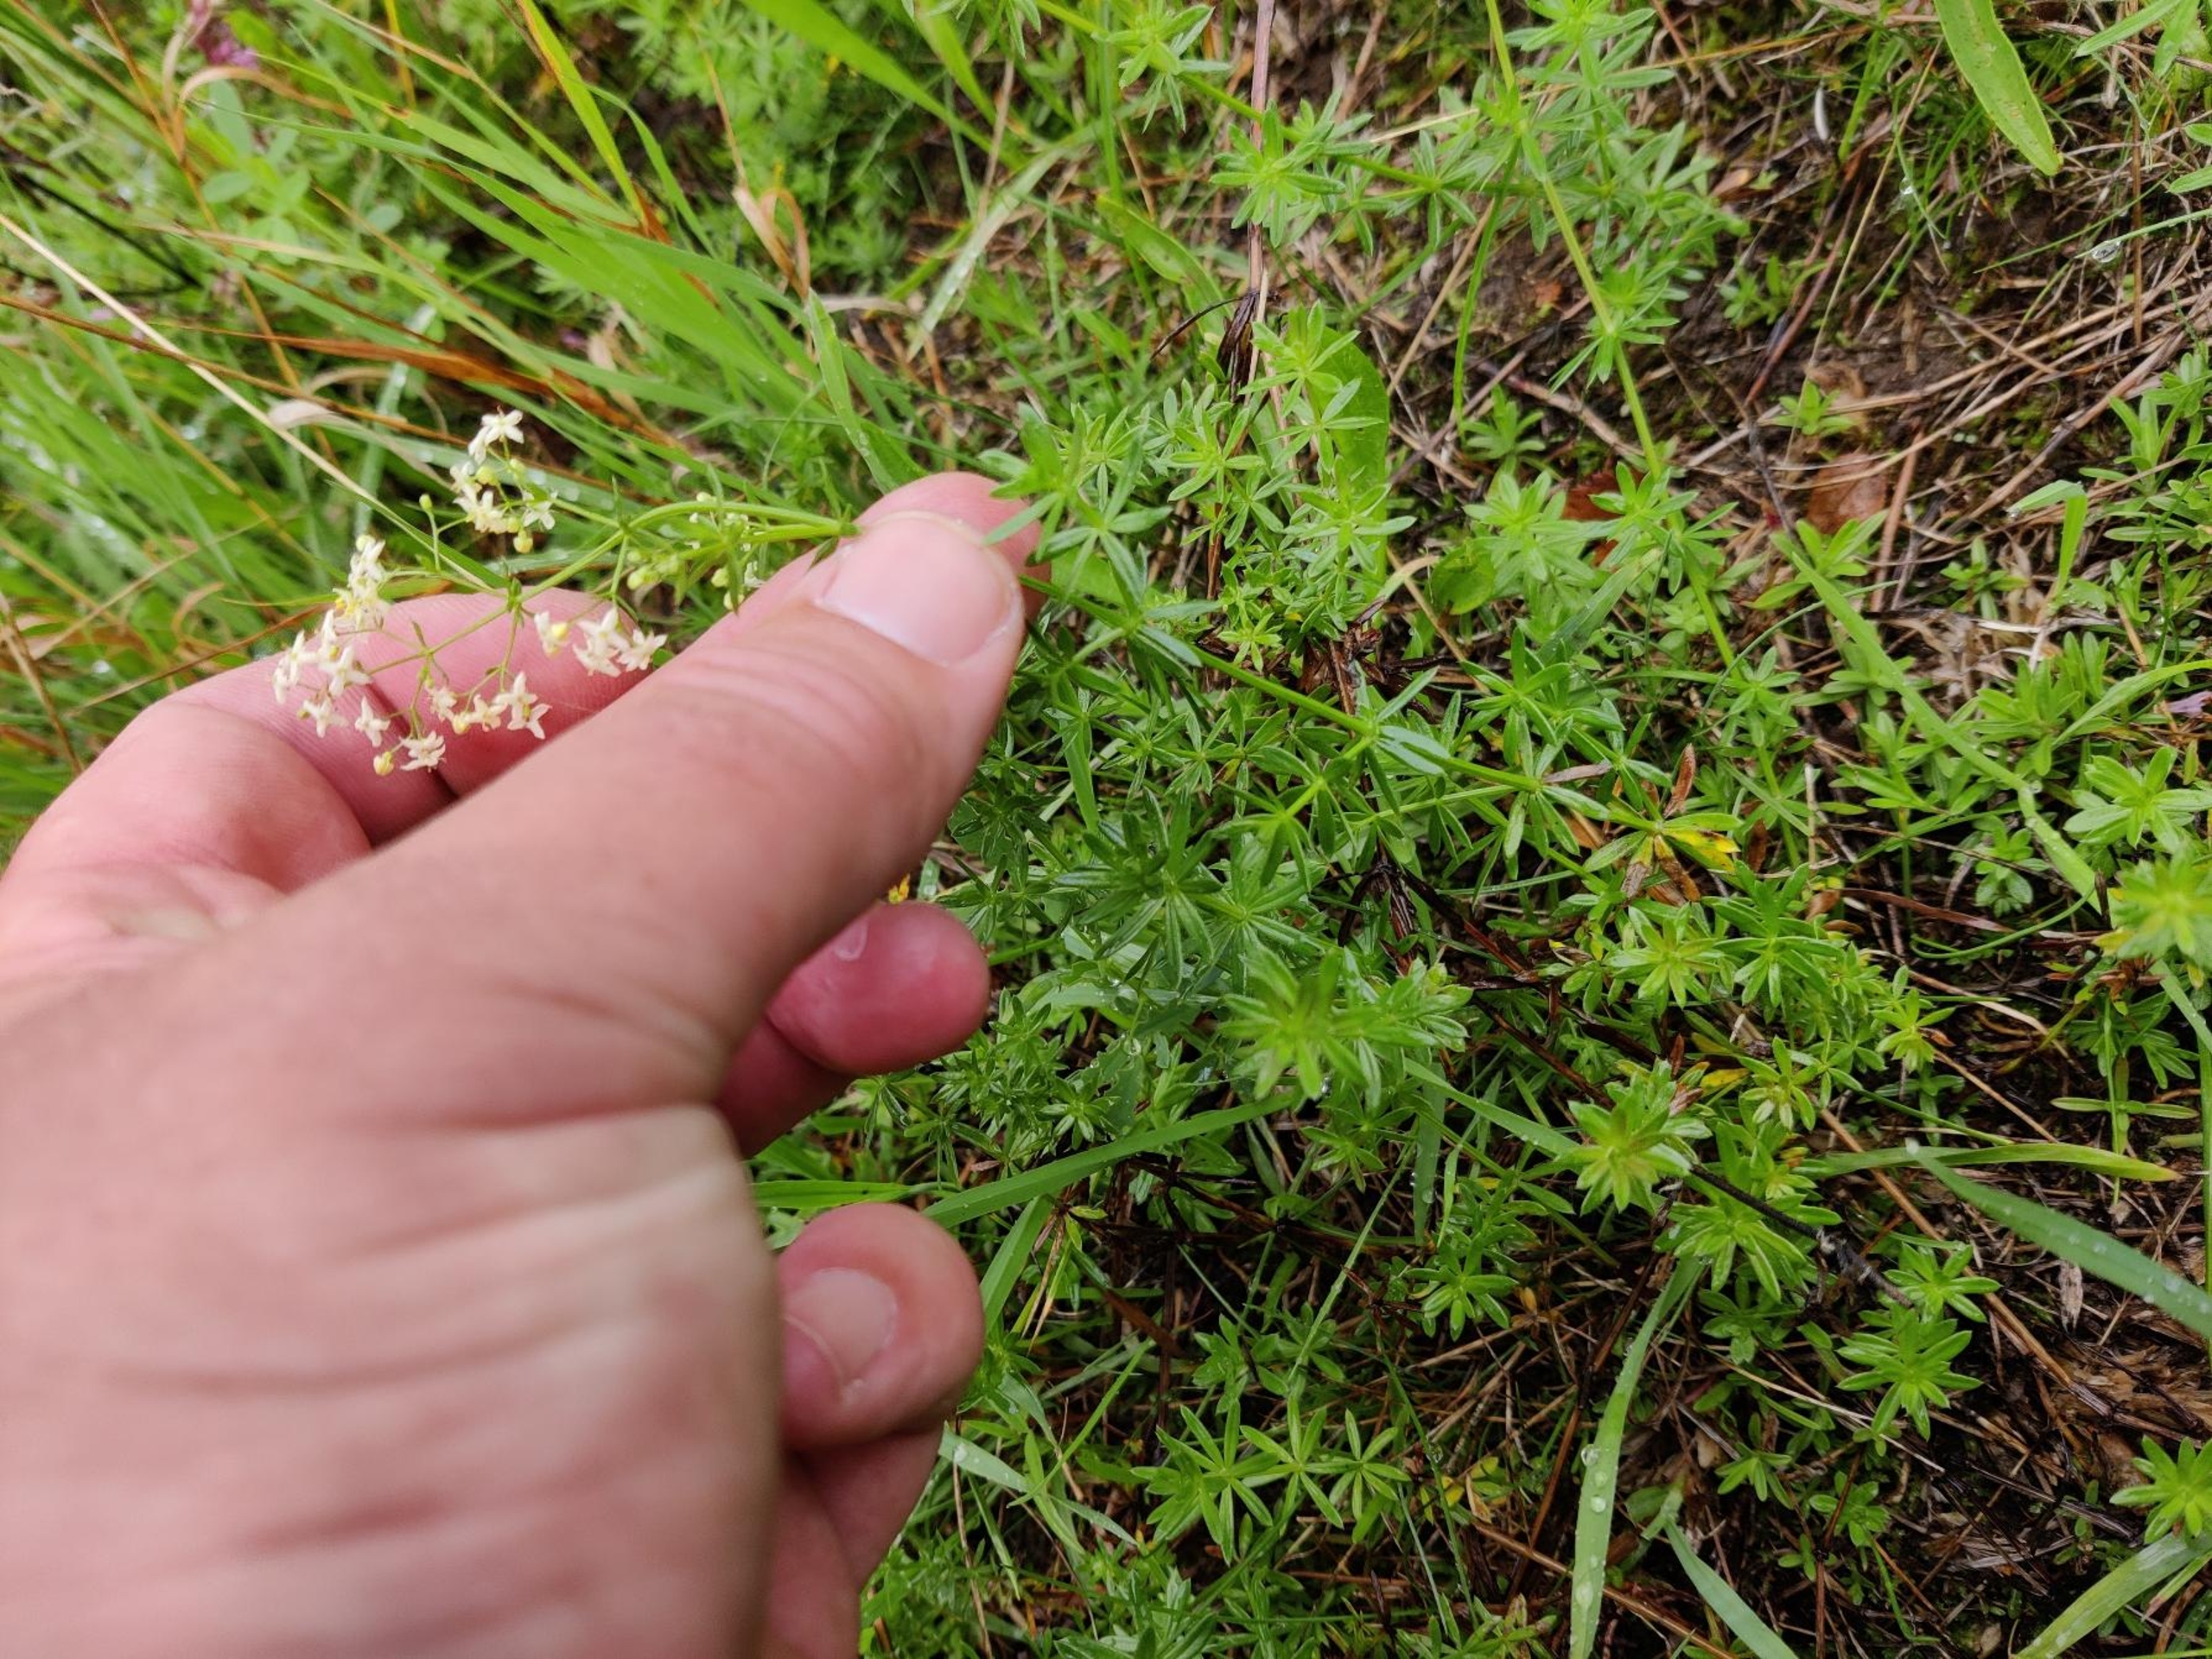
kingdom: Plantae
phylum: Tracheophyta
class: Magnoliopsida
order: Gentianales
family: Rubiaceae
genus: Galium
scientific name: Galium mollugo
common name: Hvid snerre
